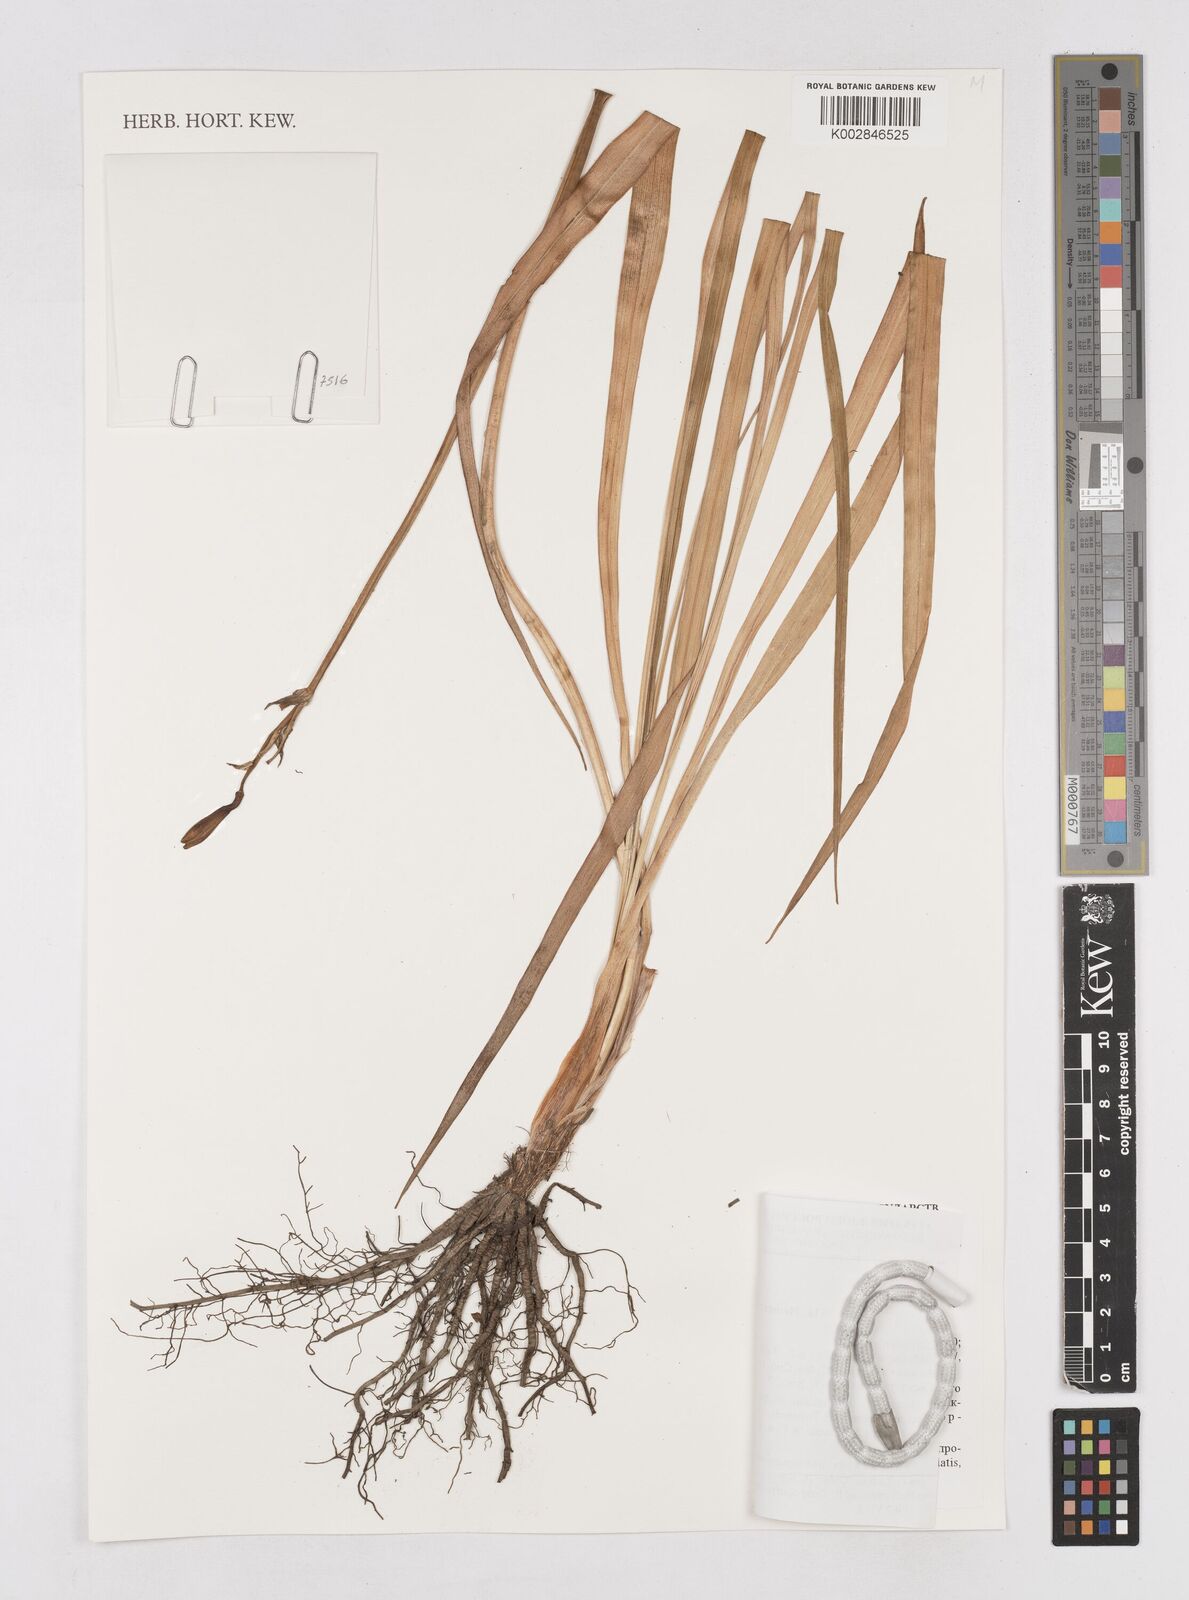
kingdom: Plantae
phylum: Tracheophyta
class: Liliopsida
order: Asparagales
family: Asphodelaceae
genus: Hemerocallis
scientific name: Hemerocallis minor
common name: Small daylily
